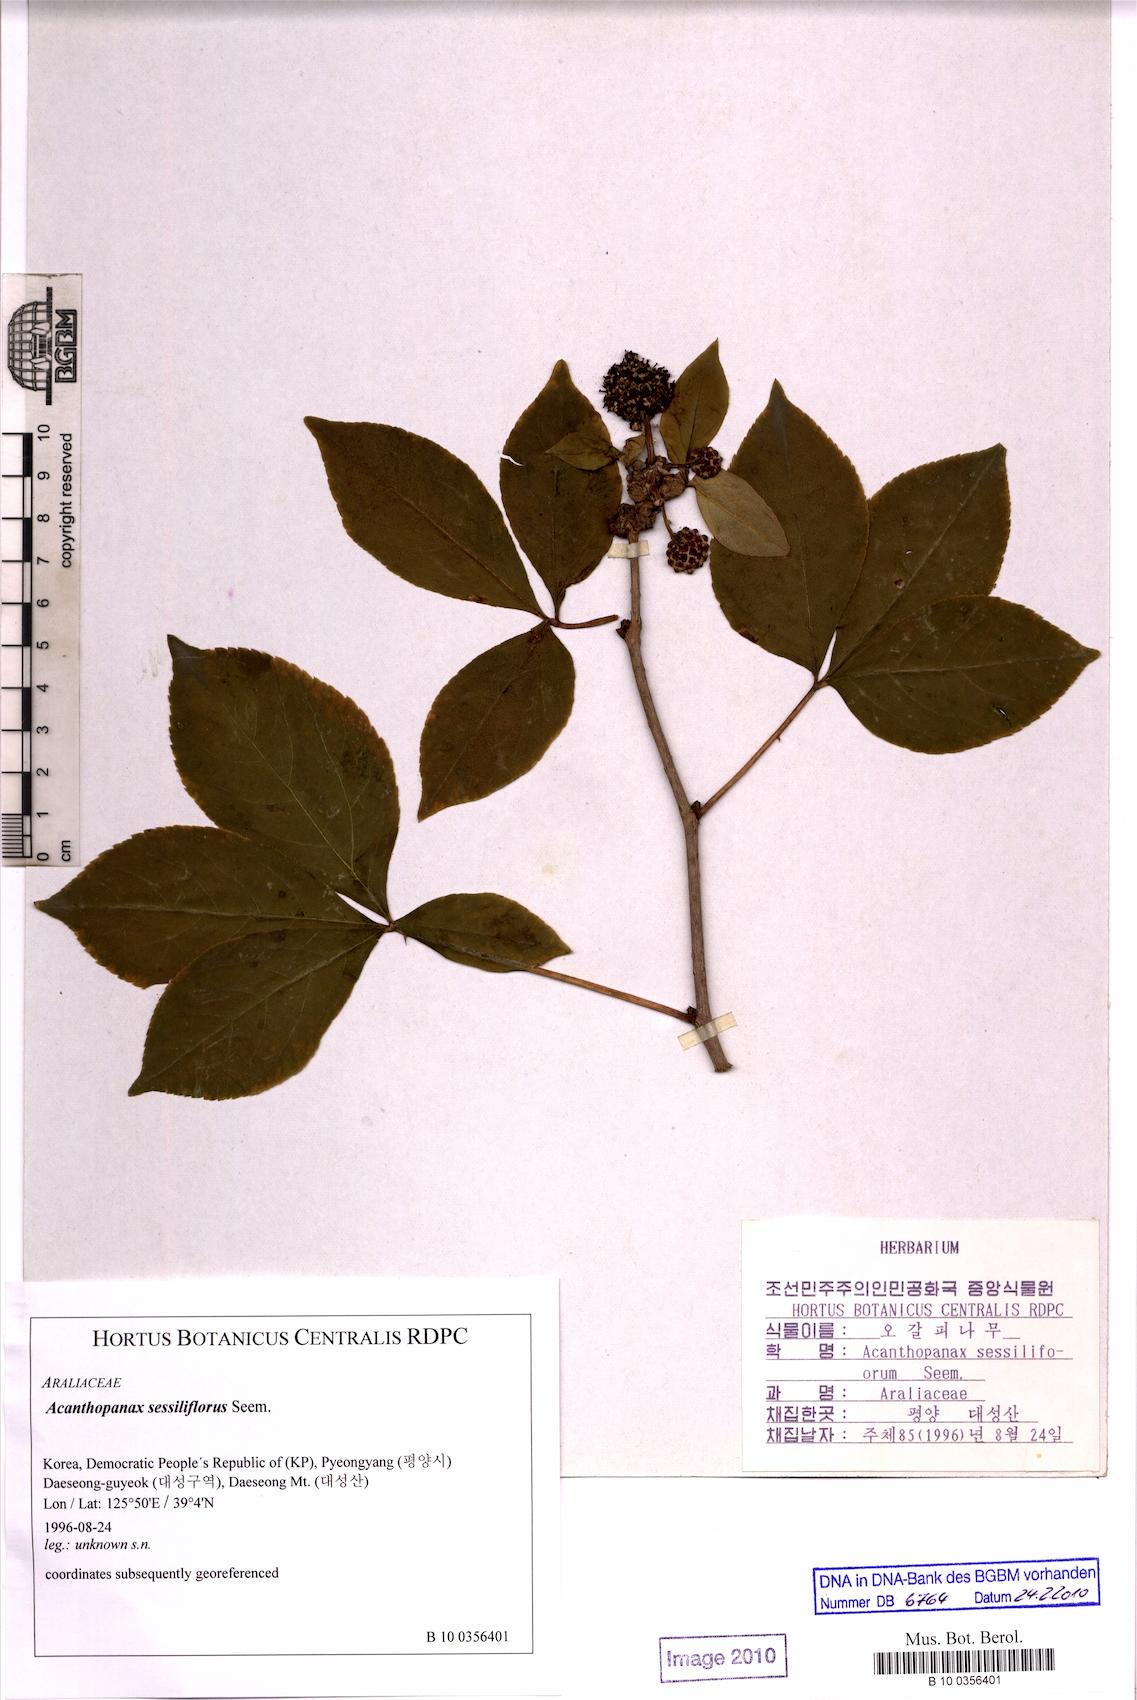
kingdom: Plantae
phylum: Tracheophyta
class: Magnoliopsida
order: Apiales
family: Araliaceae
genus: Eleutherococcus
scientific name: Eleutherococcus sessiliflorus
